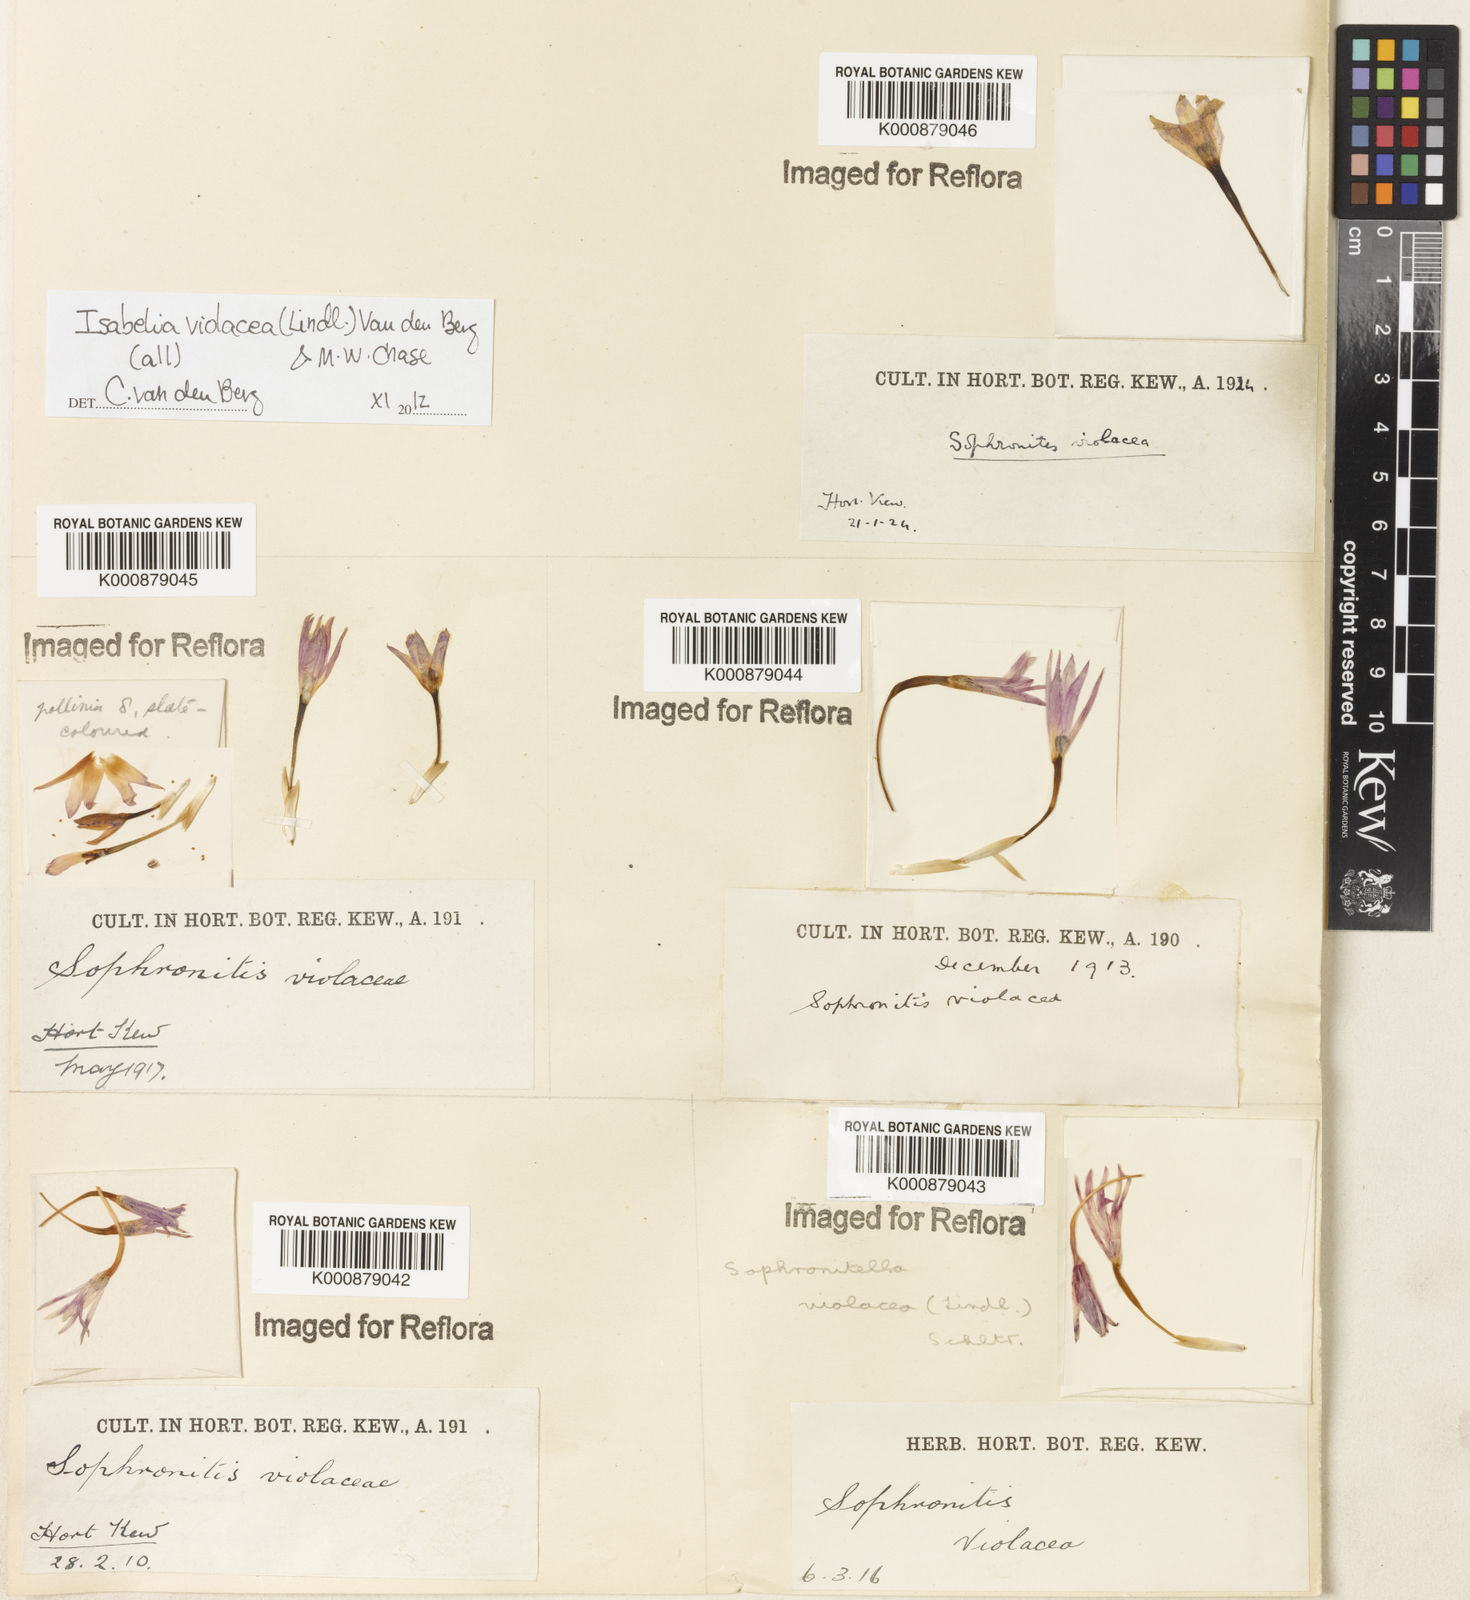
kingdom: Plantae
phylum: Tracheophyta
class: Liliopsida
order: Asparagales
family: Orchidaceae
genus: Isabelia
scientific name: Isabelia violacea
